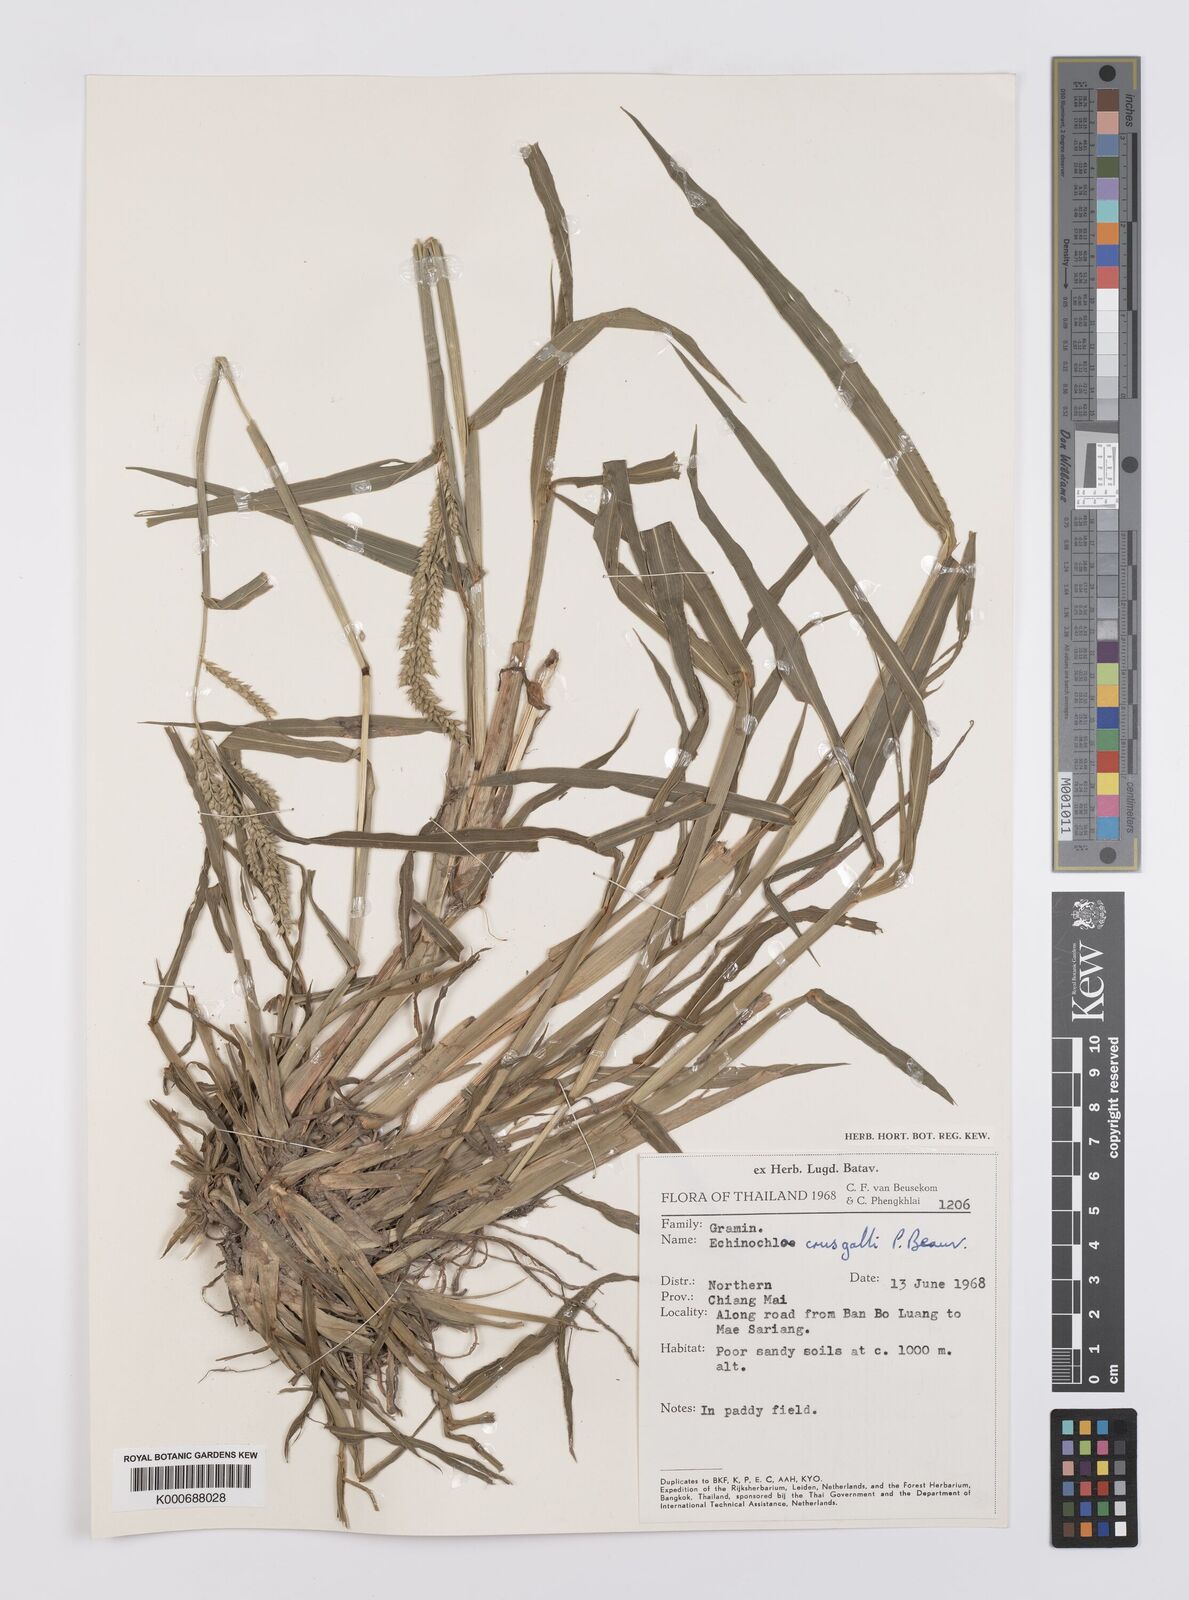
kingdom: Plantae
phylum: Tracheophyta
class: Liliopsida
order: Poales
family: Poaceae
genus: Echinochloa
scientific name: Echinochloa crus-galli
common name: Cockspur
